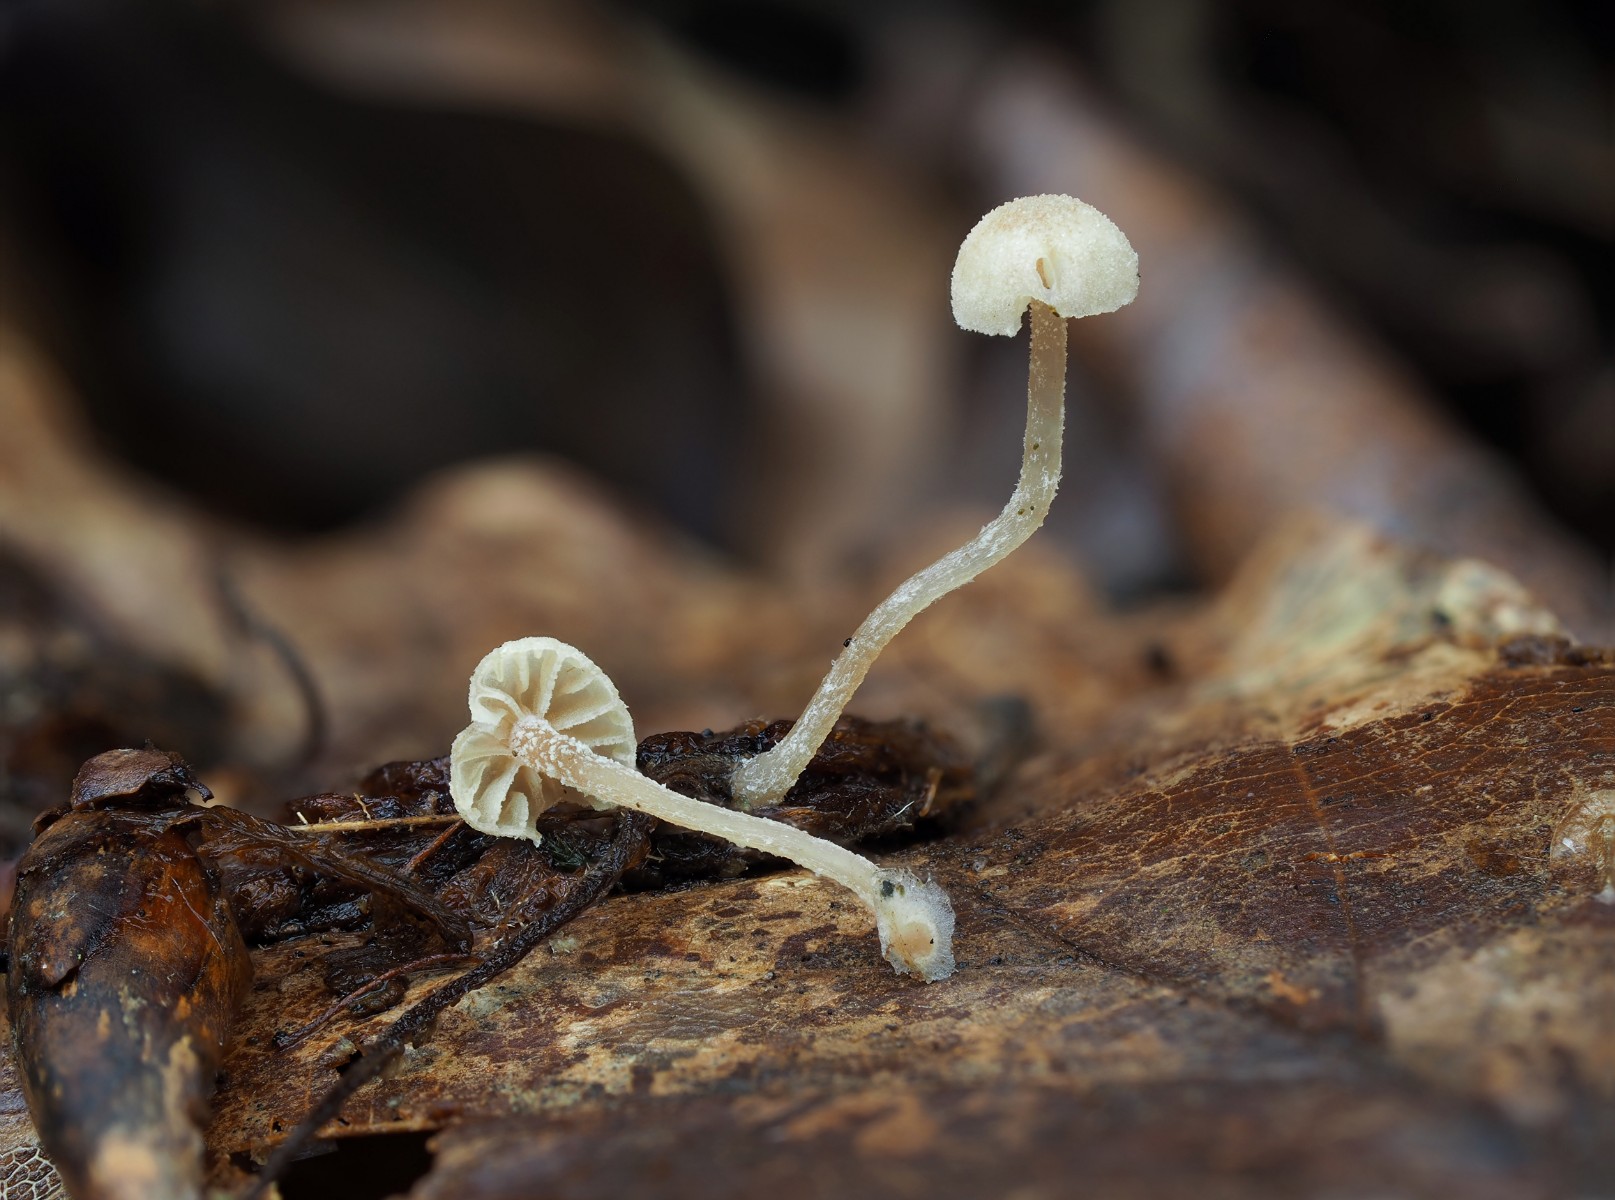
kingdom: Fungi
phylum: Basidiomycota
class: Agaricomycetes
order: Agaricales
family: Tubariaceae
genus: Flammulaster
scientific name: Flammulaster carpophilus
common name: bøge-grynskælhat
